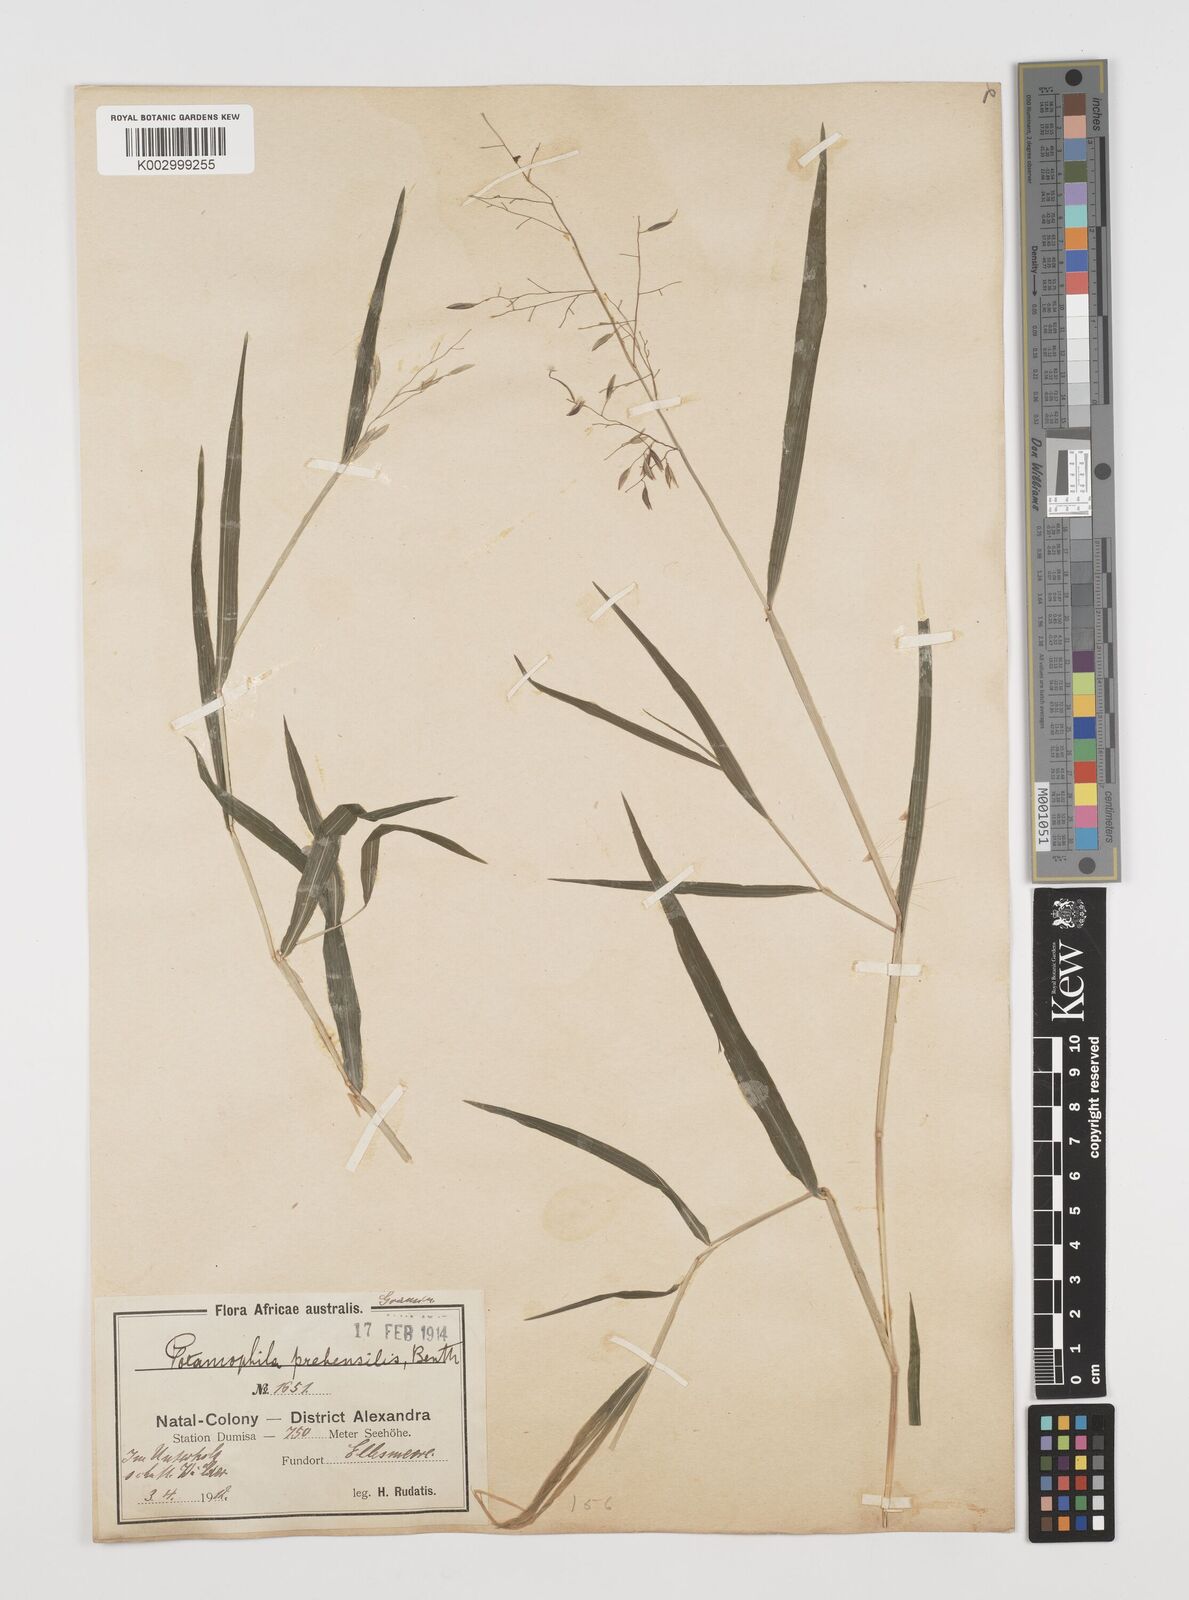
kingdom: Plantae
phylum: Tracheophyta
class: Liliopsida
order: Poales
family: Poaceae
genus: Prosphytochloa
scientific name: Prosphytochloa prehensilis
